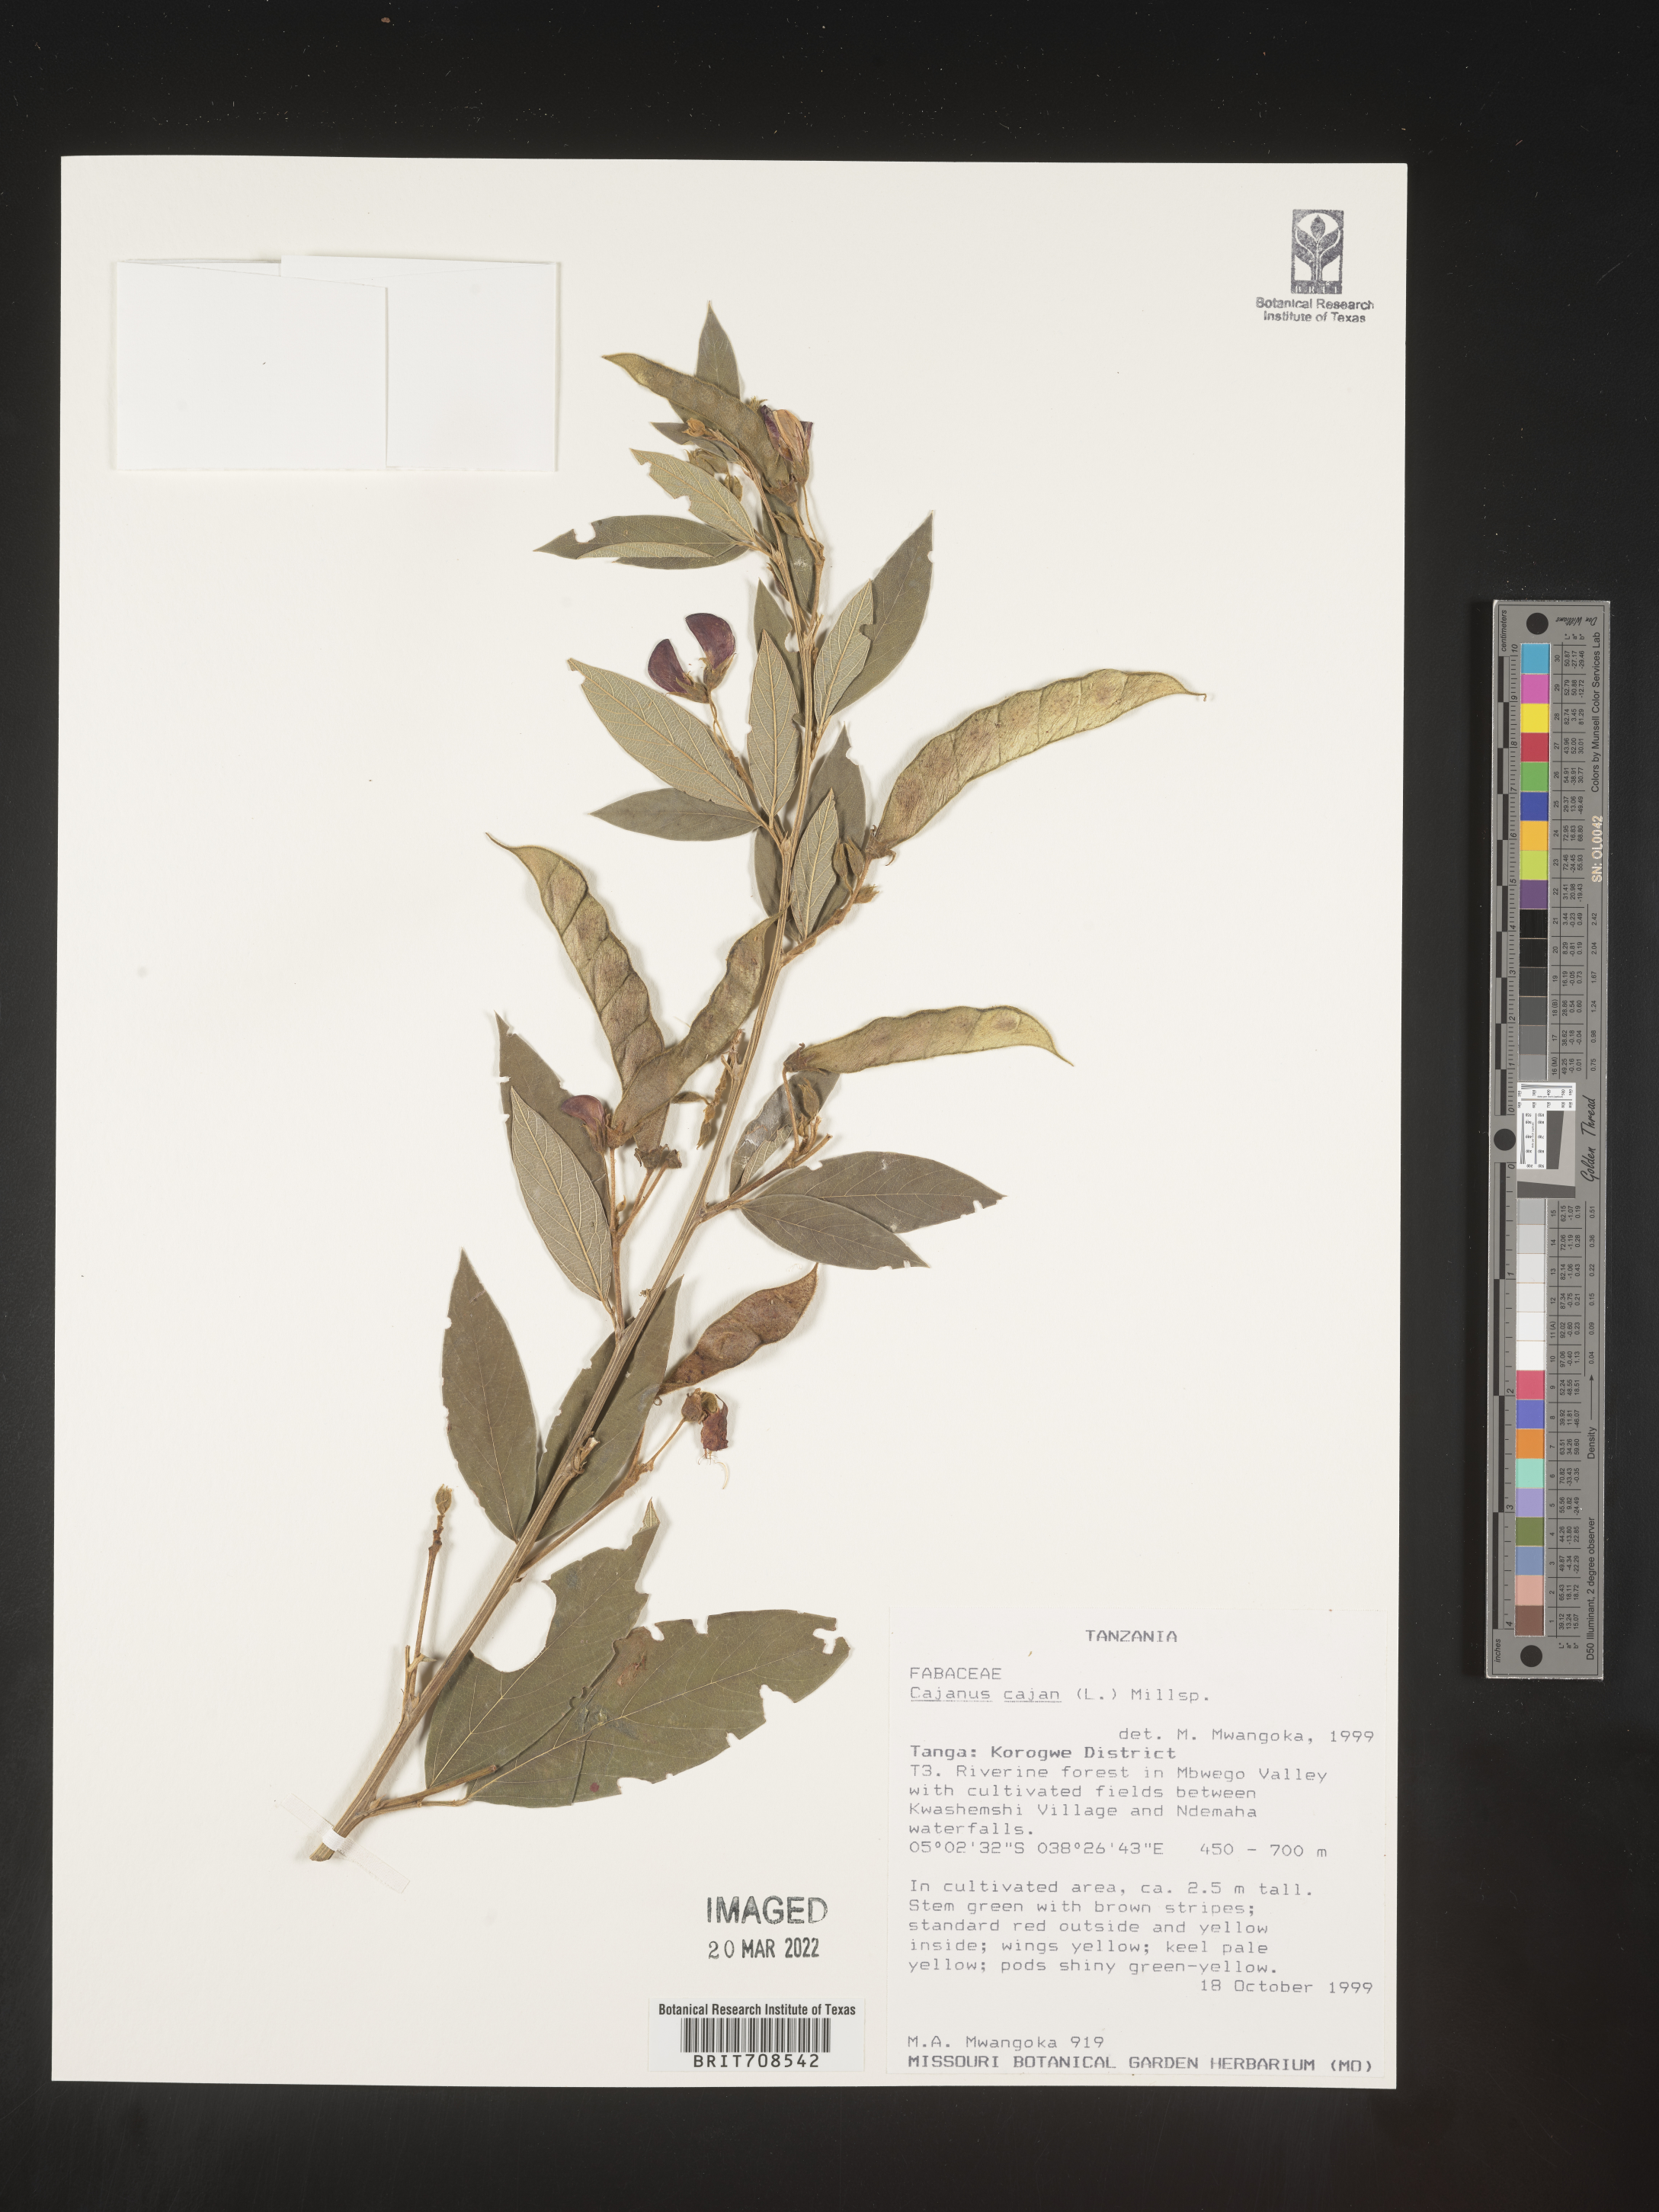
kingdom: Plantae
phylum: Tracheophyta
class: Magnoliopsida
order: Fabales
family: Fabaceae
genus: Cajanus
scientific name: Cajanus
